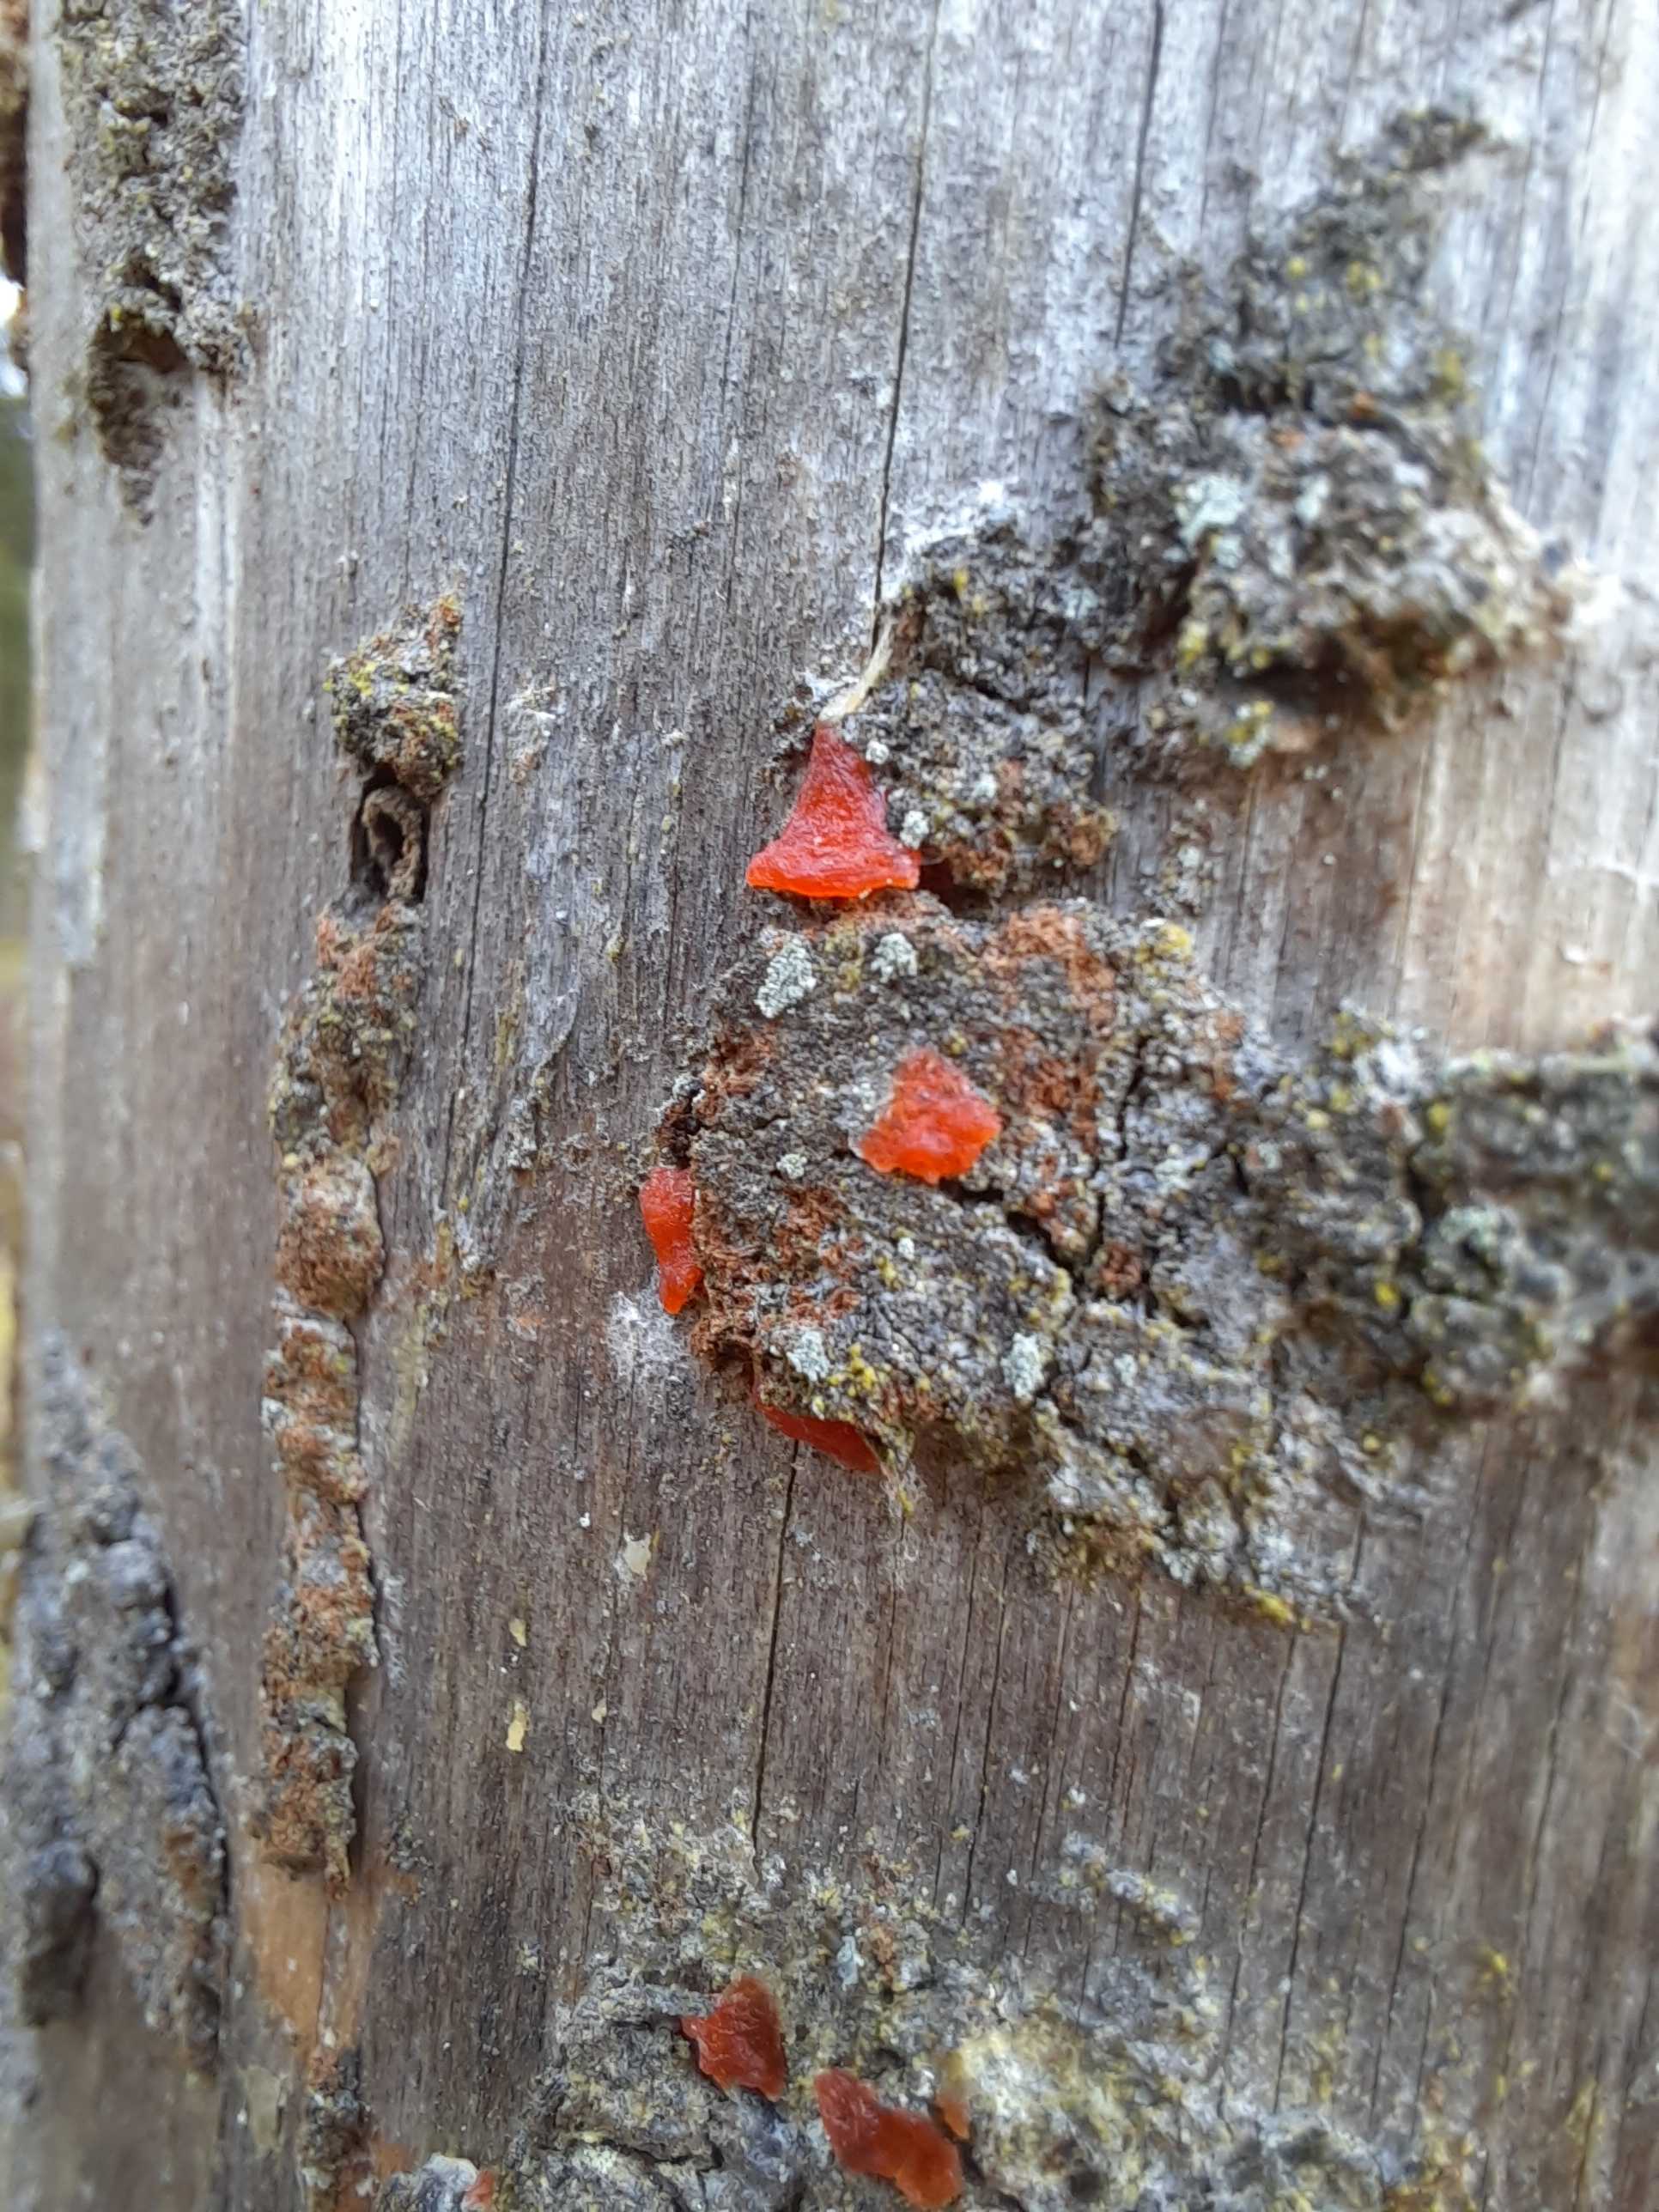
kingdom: Fungi
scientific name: Fungi
